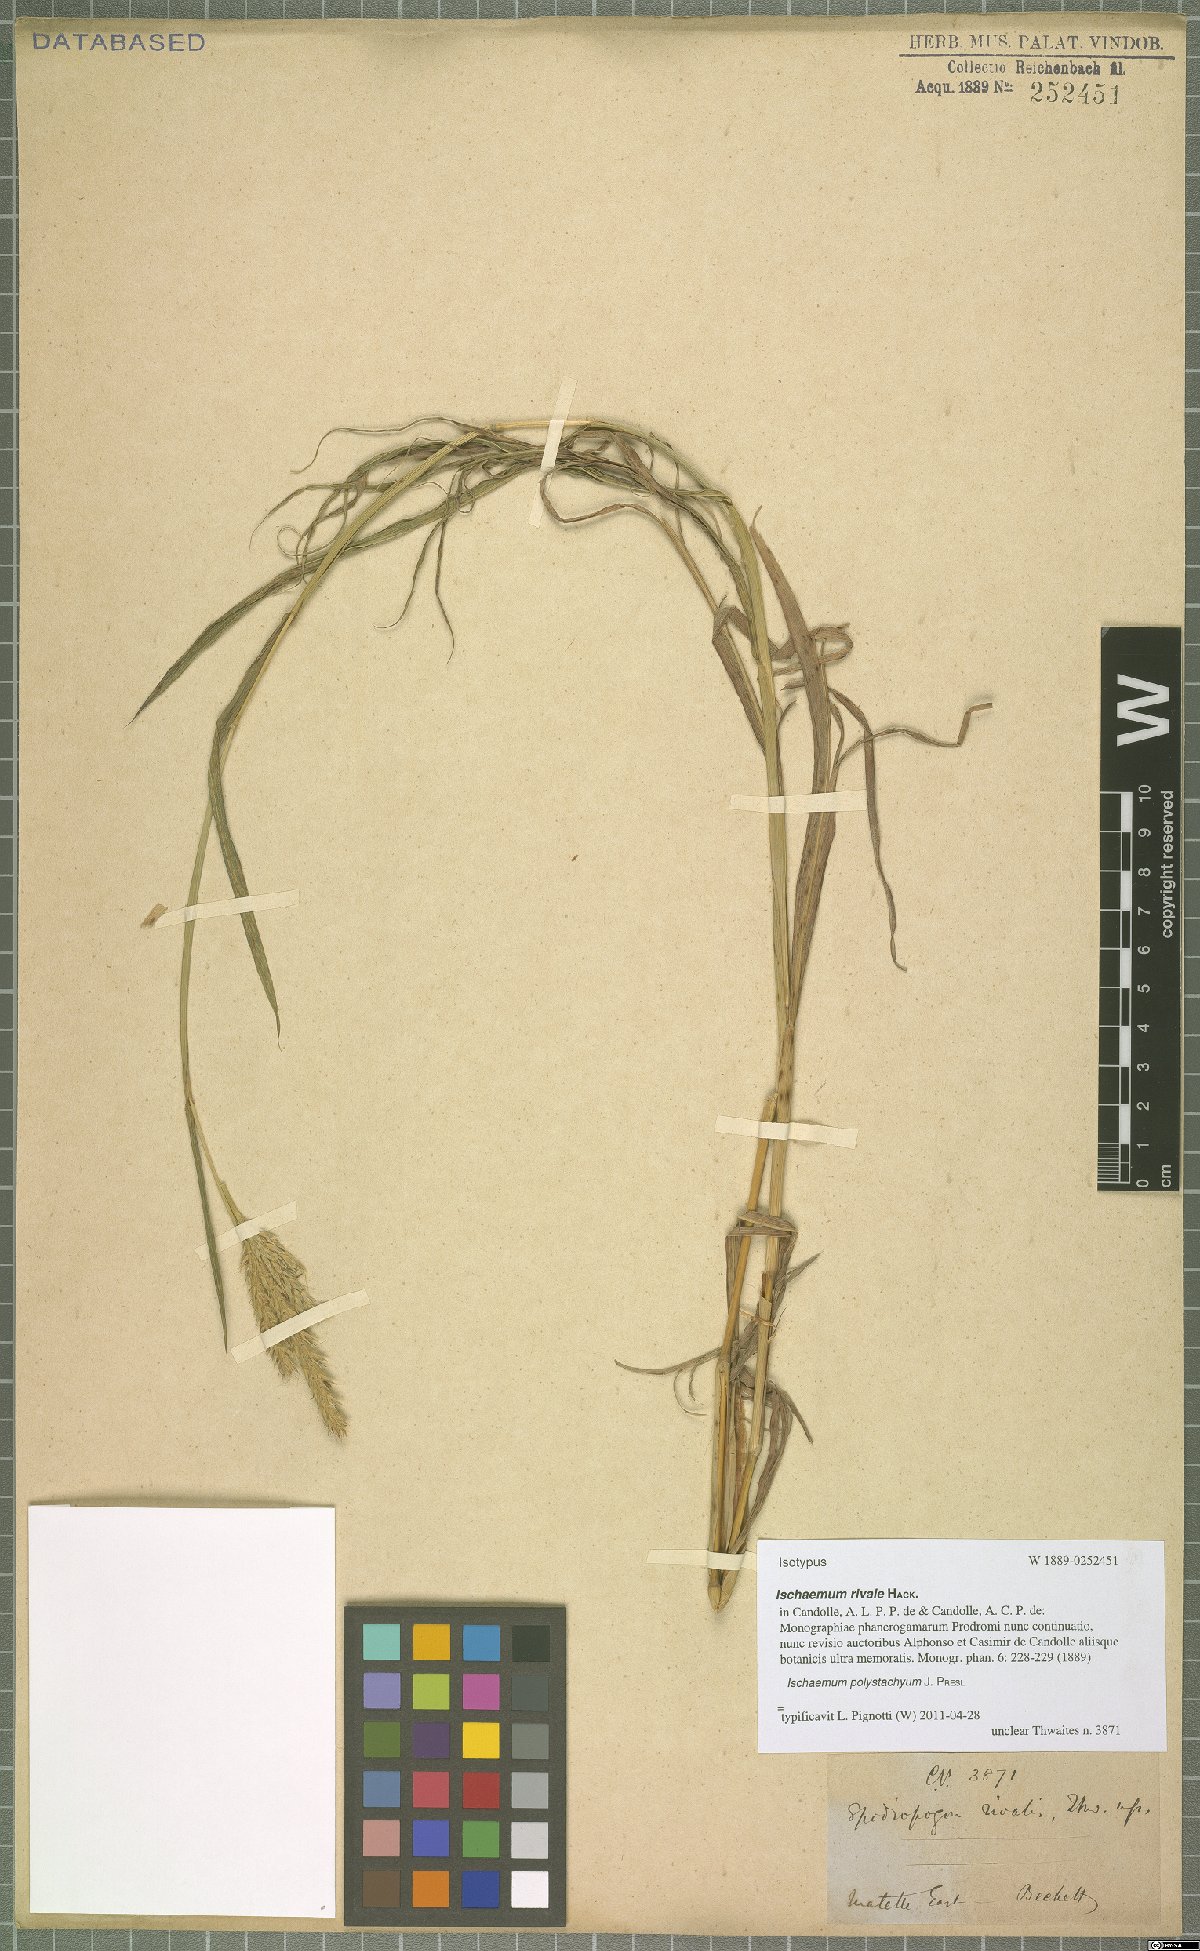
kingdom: Plantae
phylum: Tracheophyta
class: Liliopsida
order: Poales
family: Poaceae
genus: Ischaemum
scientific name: Ischaemum polystachyum
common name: Paddle grass
